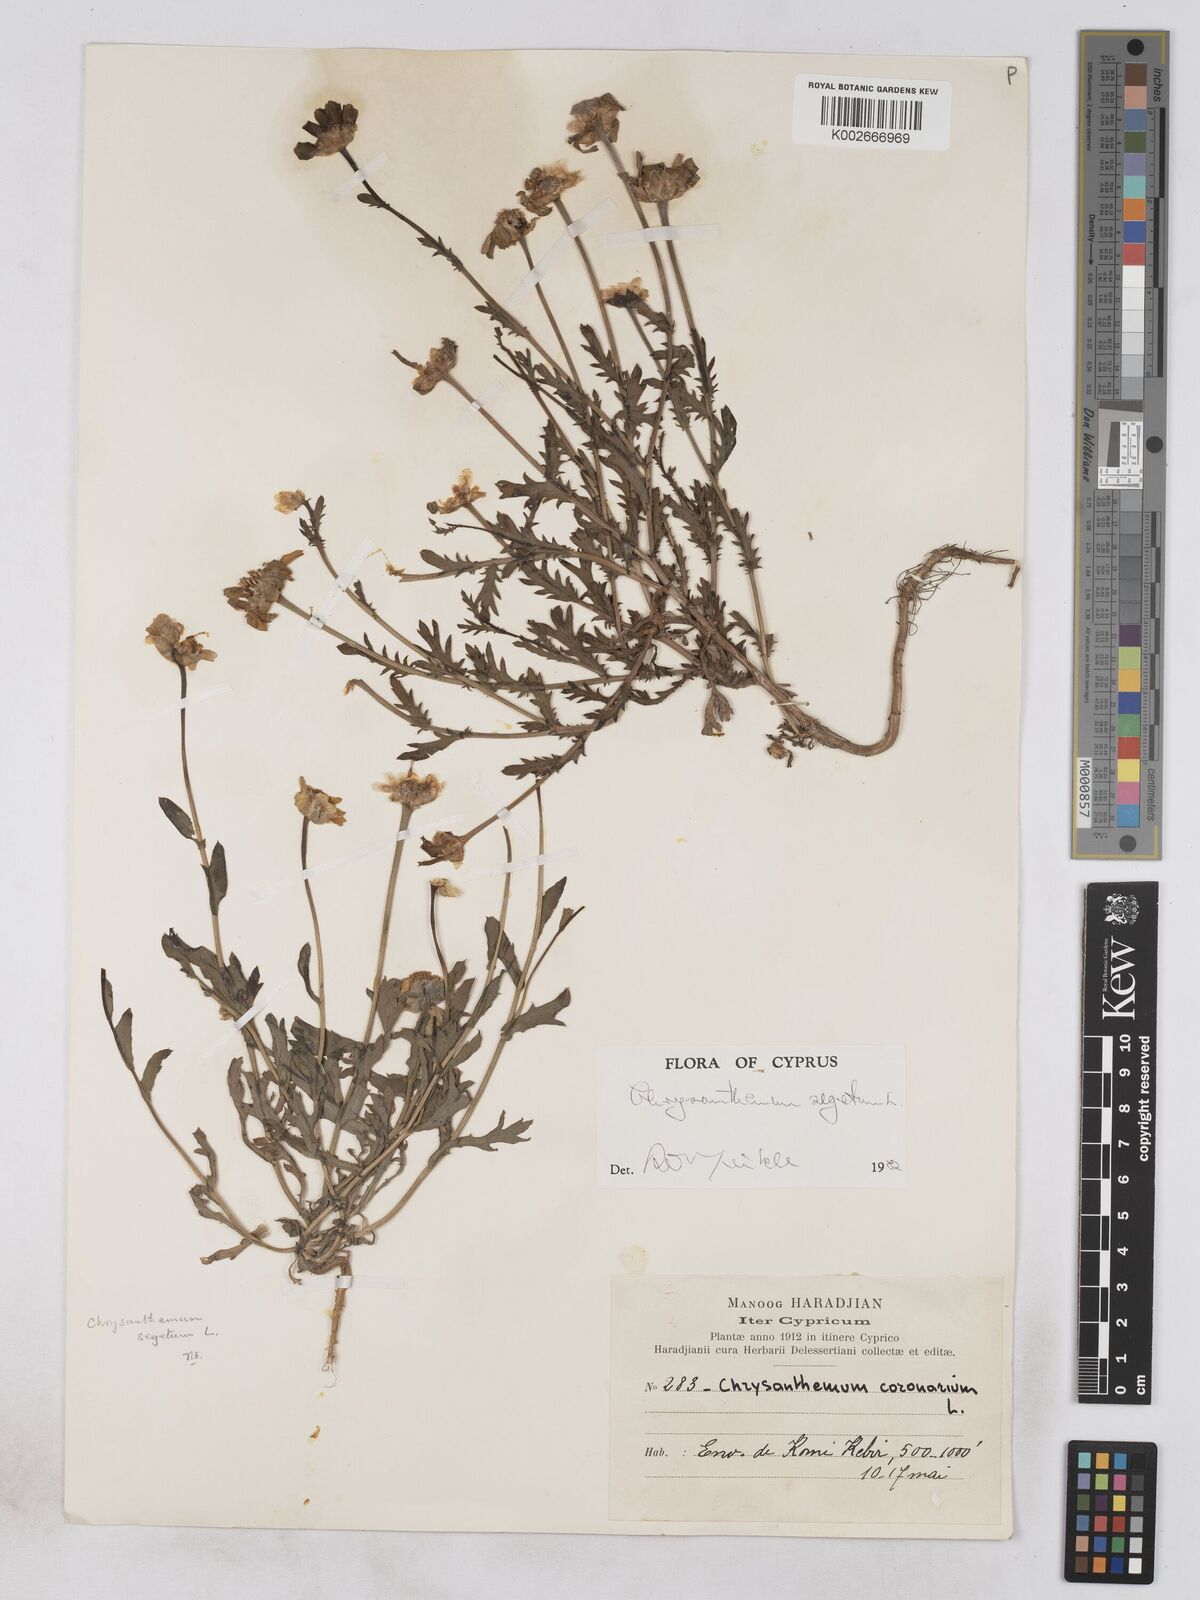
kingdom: Plantae
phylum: Tracheophyta
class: Magnoliopsida
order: Asterales
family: Asteraceae
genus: Glebionis
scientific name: Glebionis segetum
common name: Corndaisy
